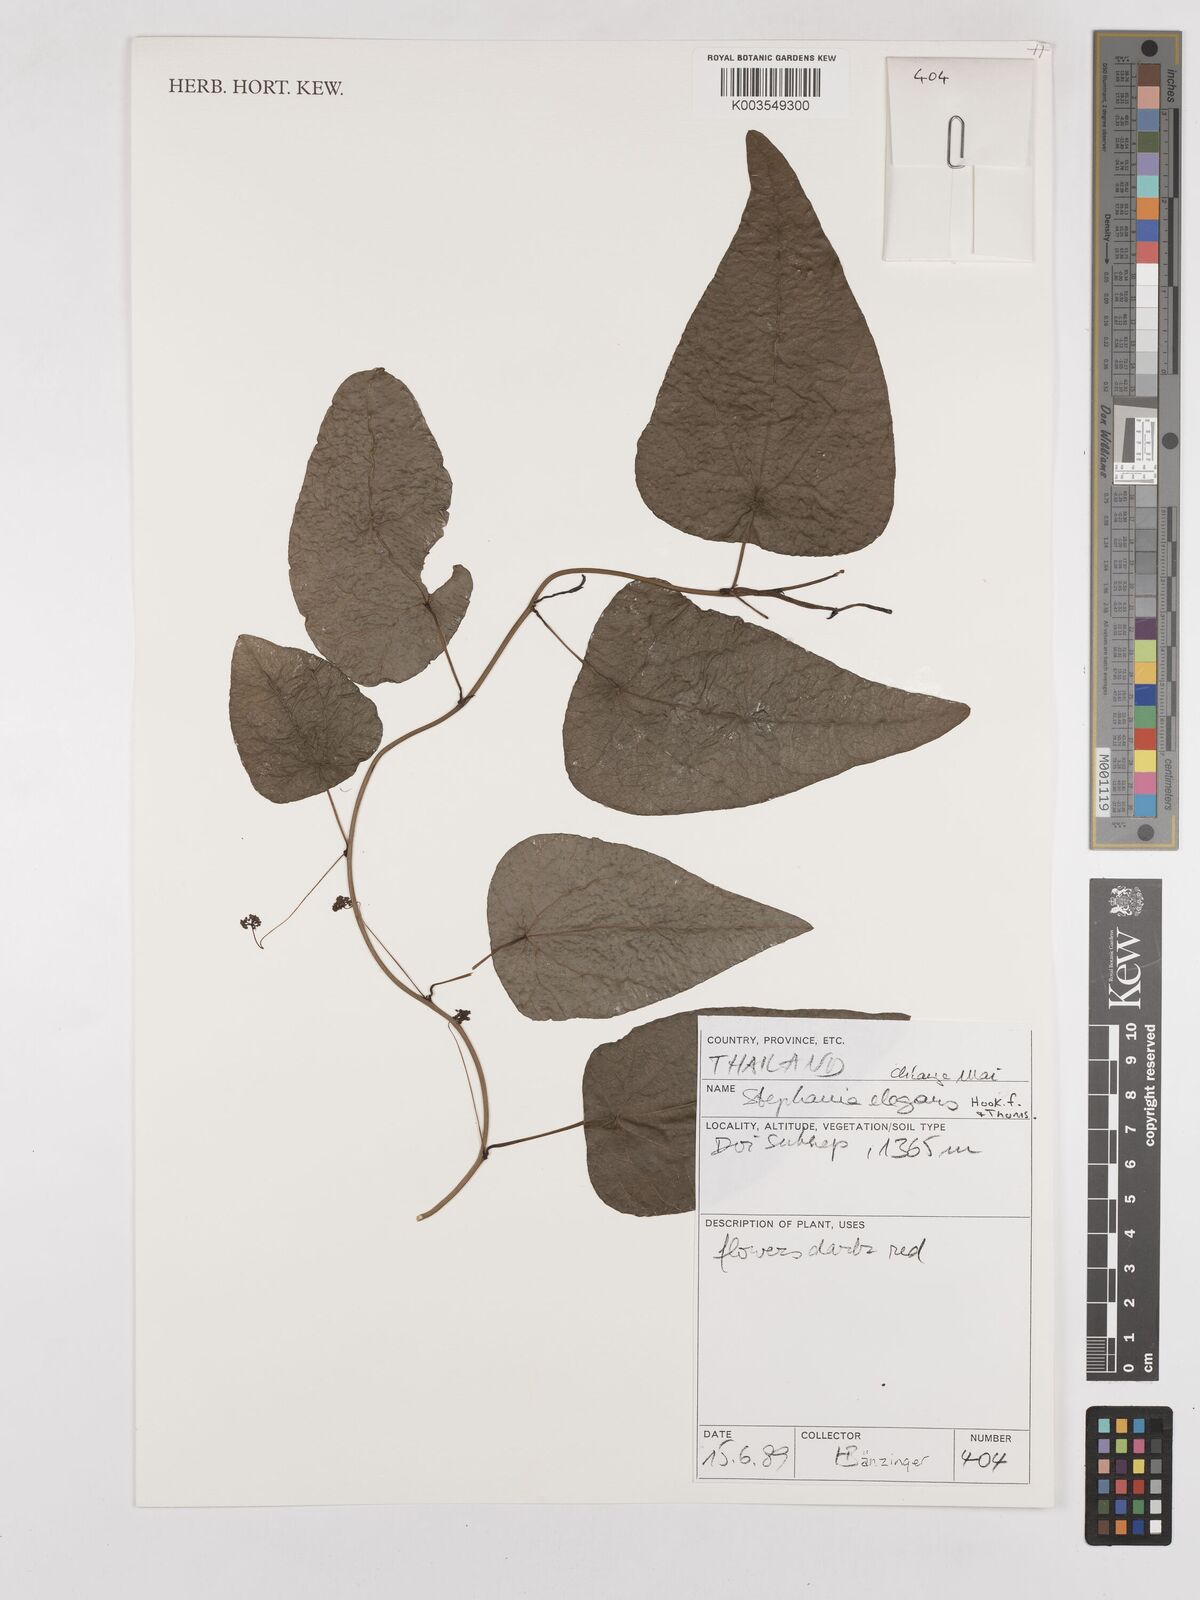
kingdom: Plantae
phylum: Tracheophyta
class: Magnoliopsida
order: Ranunculales
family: Menispermaceae
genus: Stephania
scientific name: Stephania elegans
